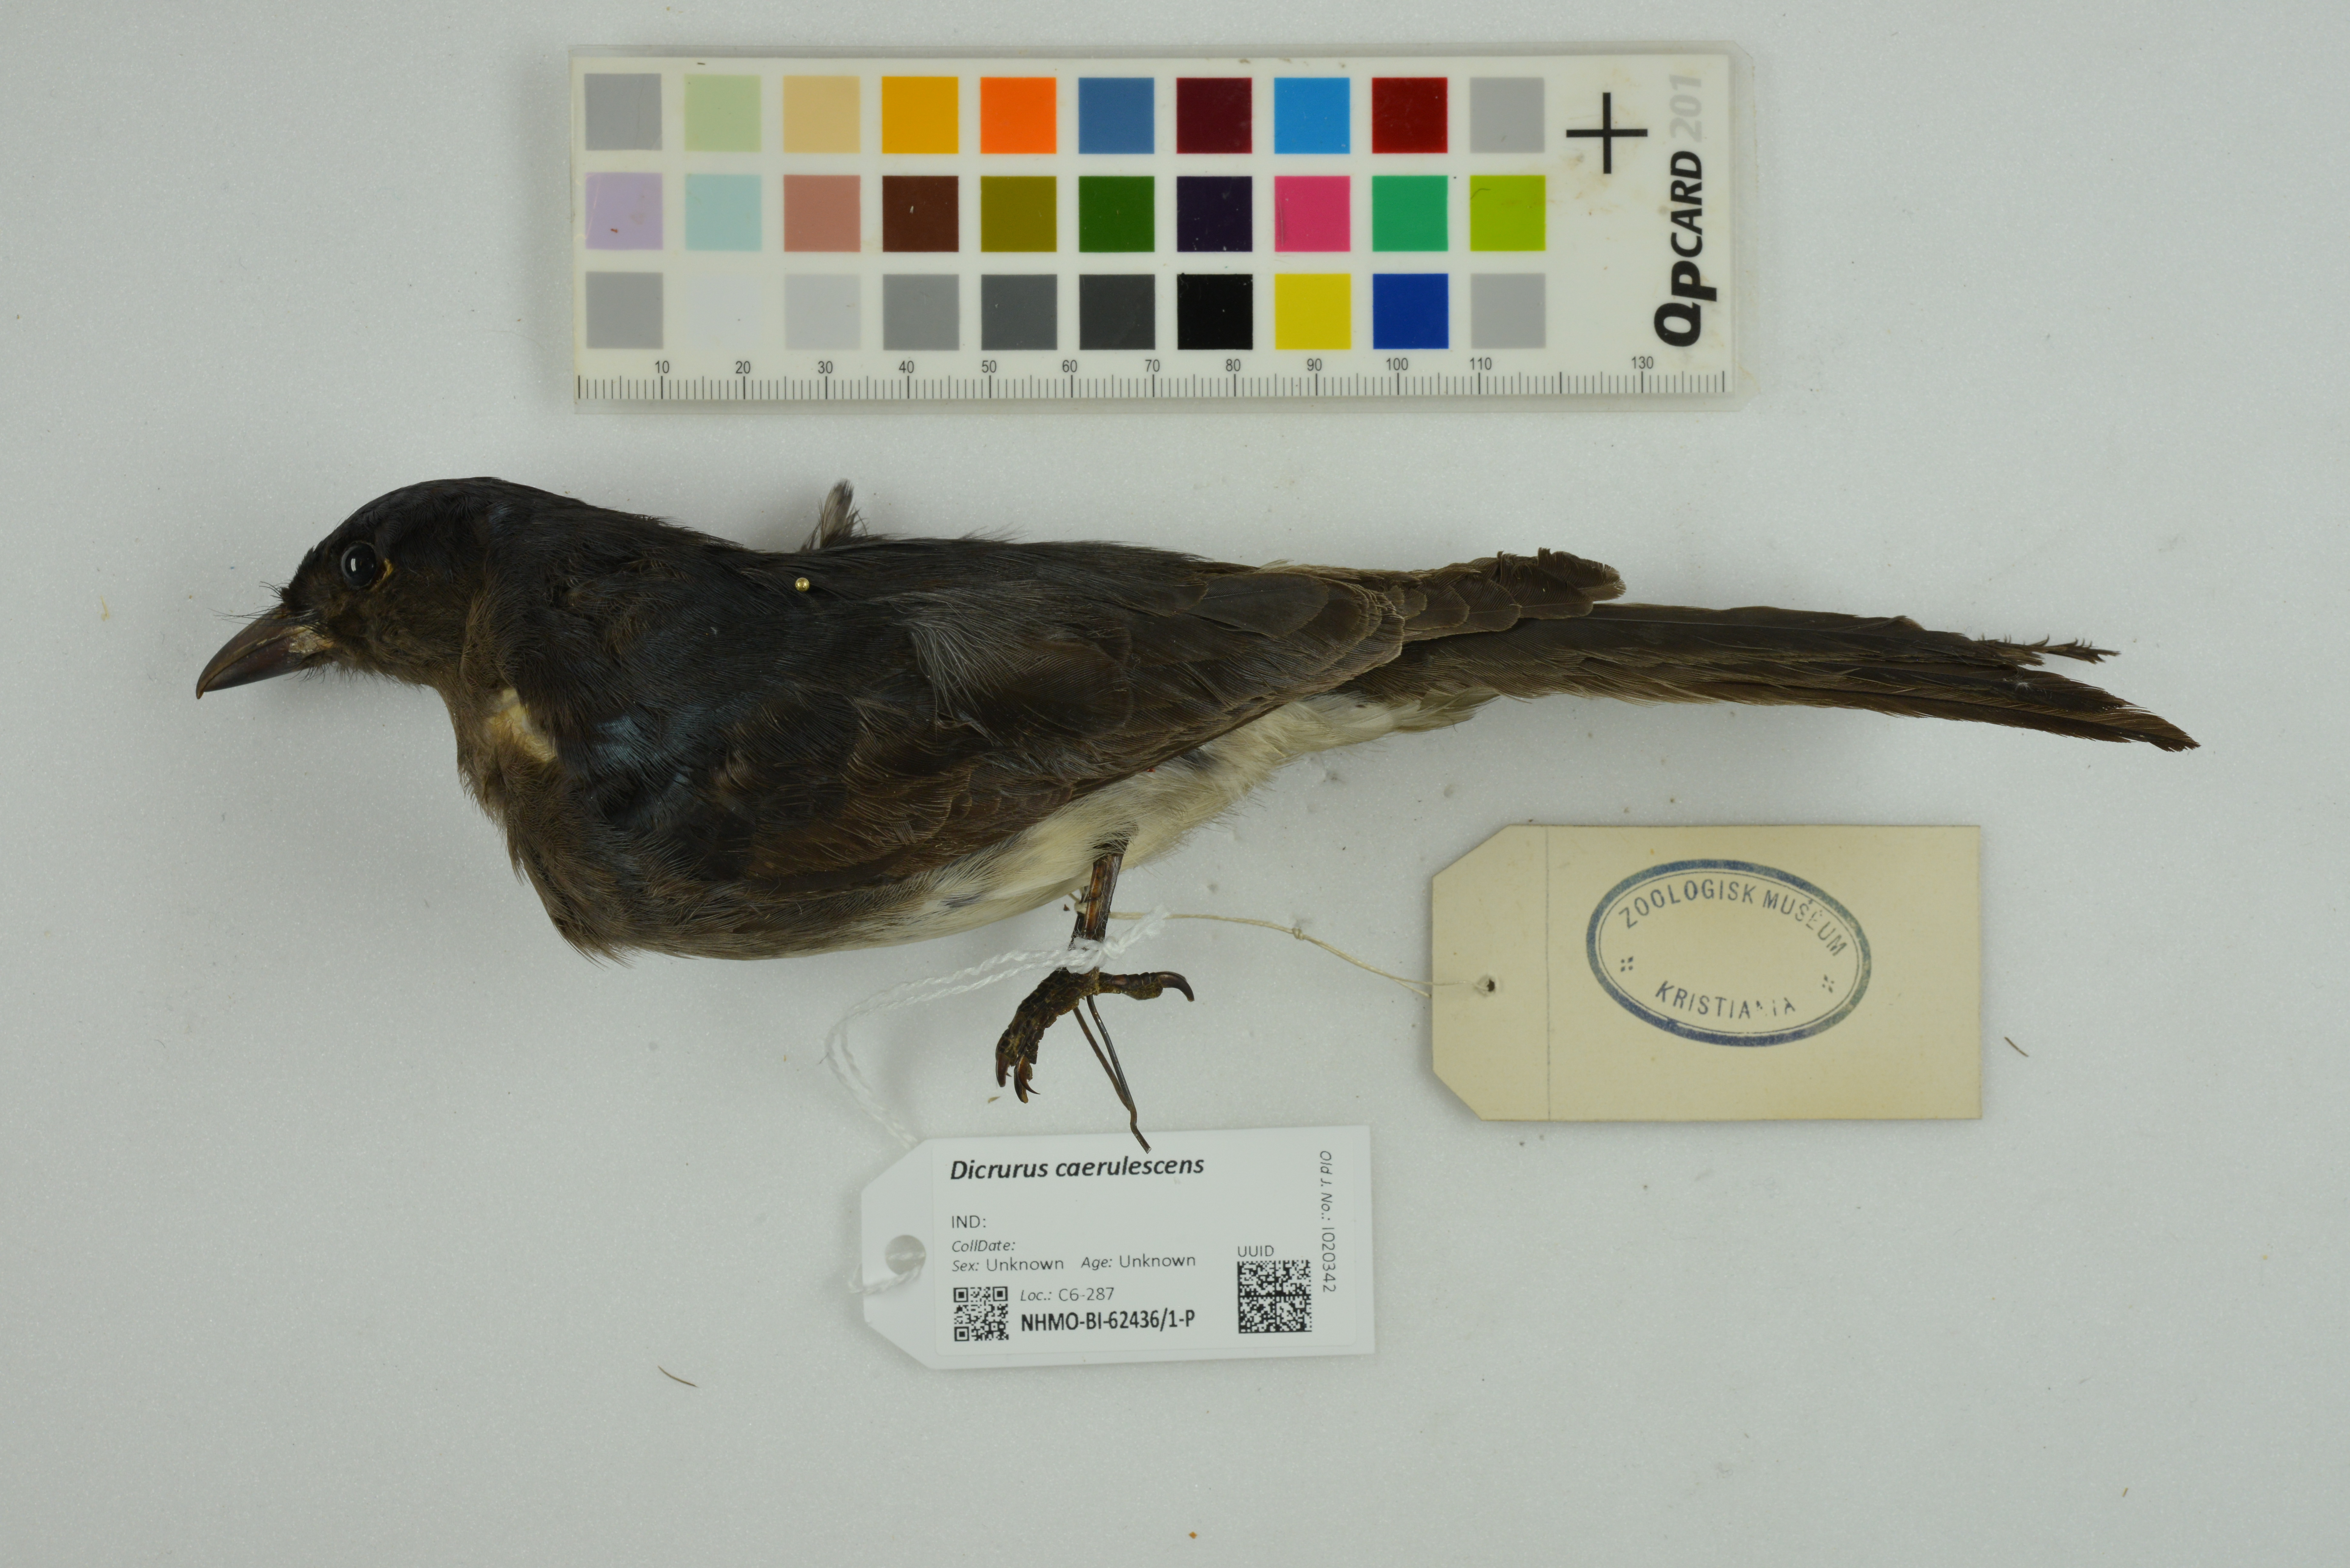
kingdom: Animalia
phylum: Chordata
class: Aves
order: Passeriformes
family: Dicruridae
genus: Dicrurus
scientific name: Dicrurus caerulescens
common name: White-bellied drongo
